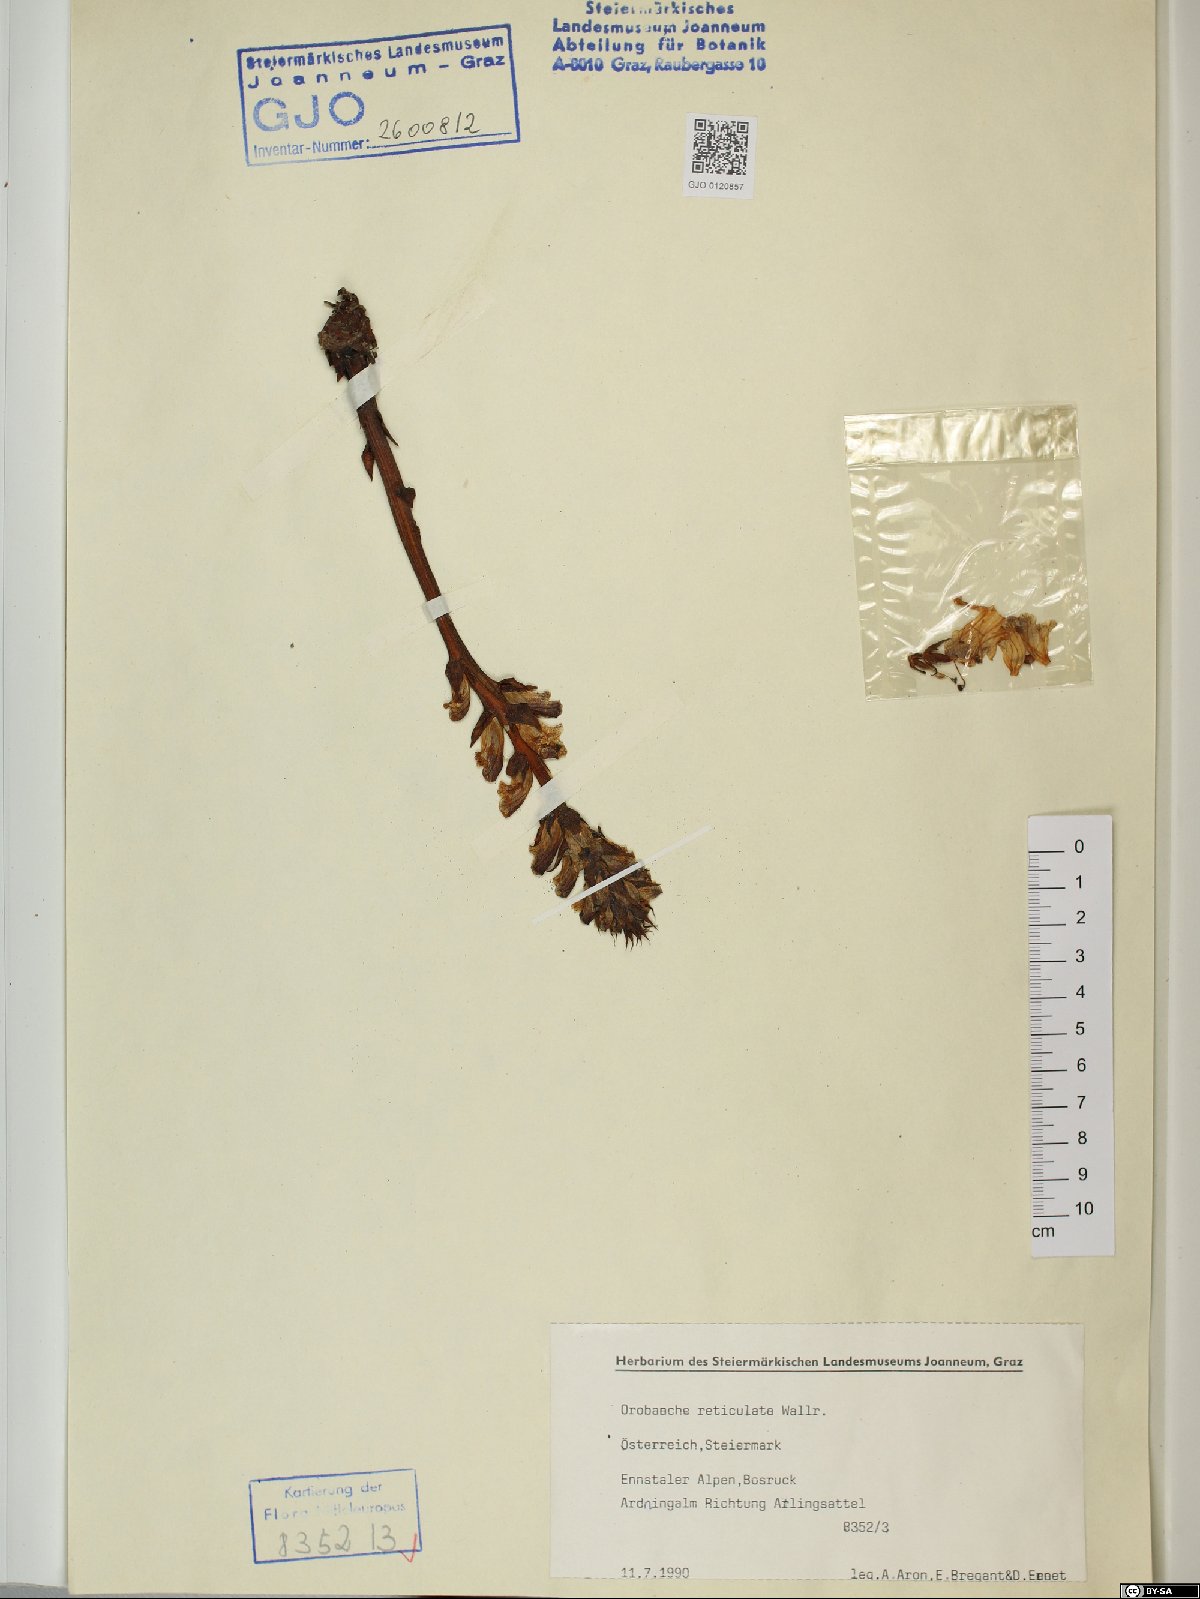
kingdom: Plantae
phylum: Tracheophyta
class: Magnoliopsida
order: Lamiales
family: Orobanchaceae
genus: Orobanche
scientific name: Orobanche reticulata
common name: Thistle broomrape
